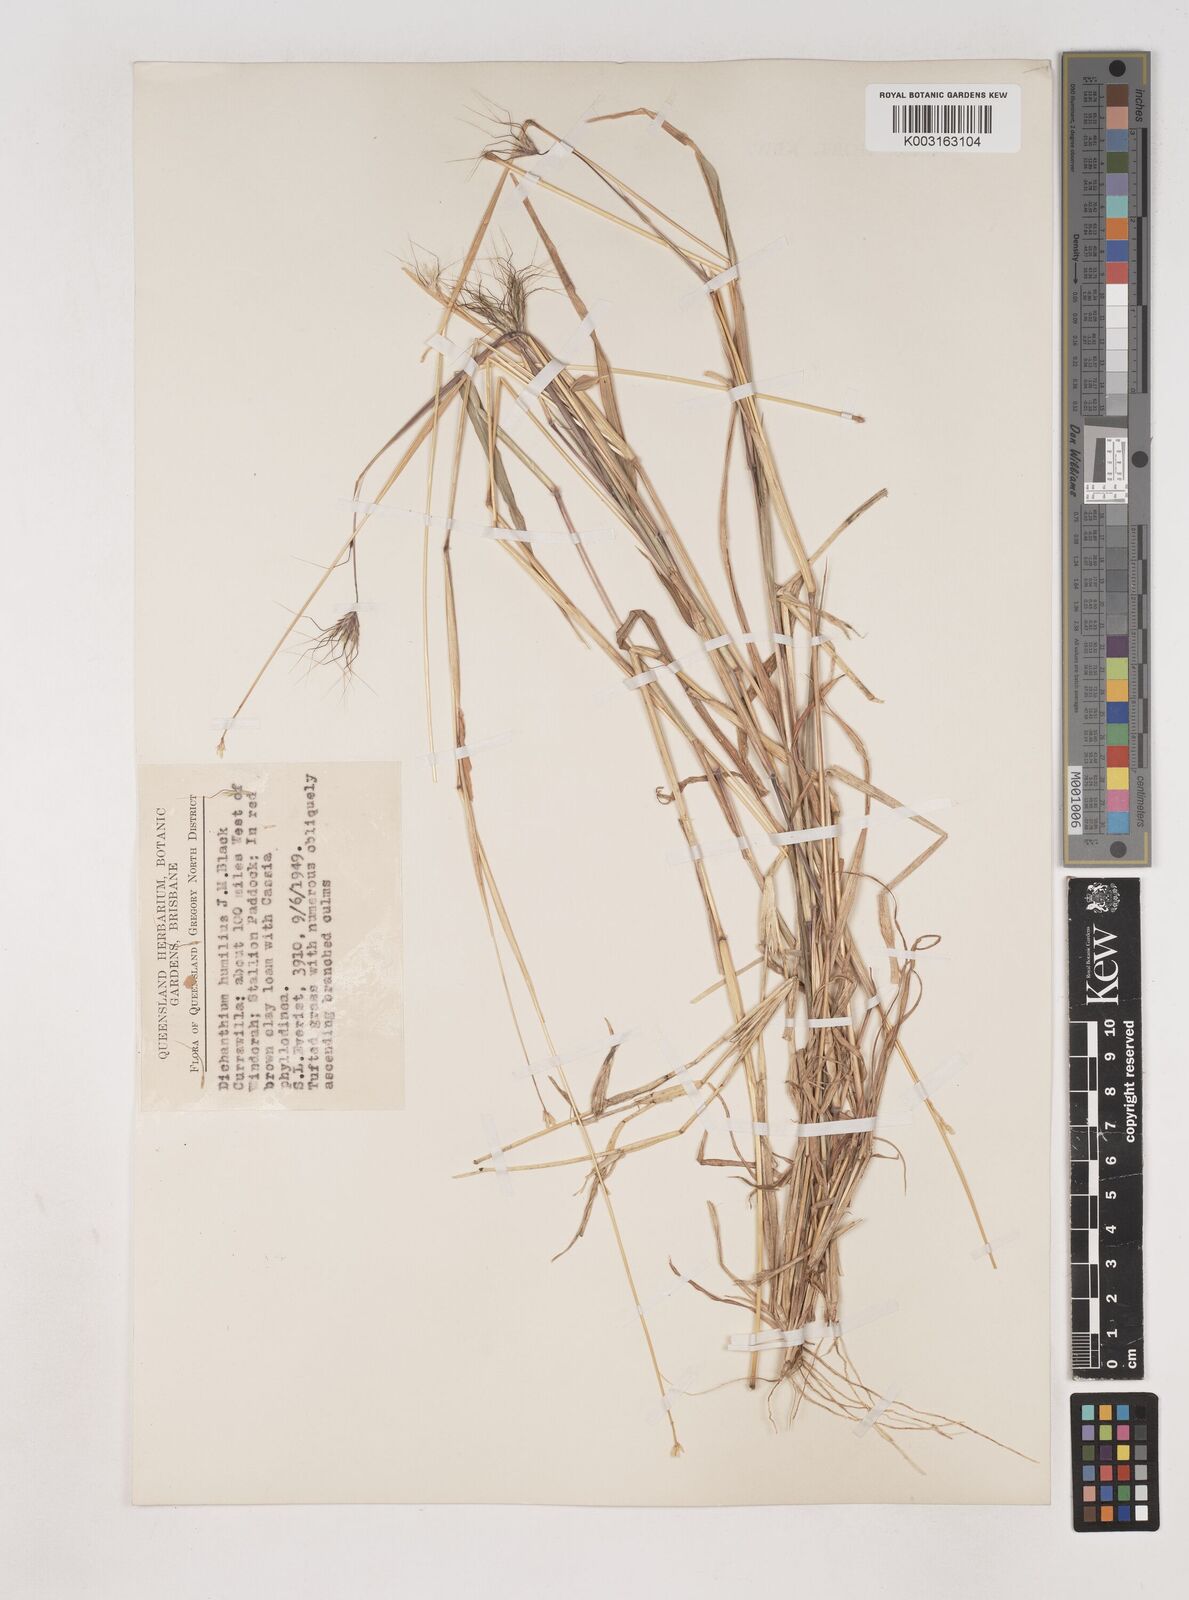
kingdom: Plantae
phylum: Tracheophyta
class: Liliopsida
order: Poales
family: Poaceae
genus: Dichanthium
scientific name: Dichanthium sericeum
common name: Silky bluestem
